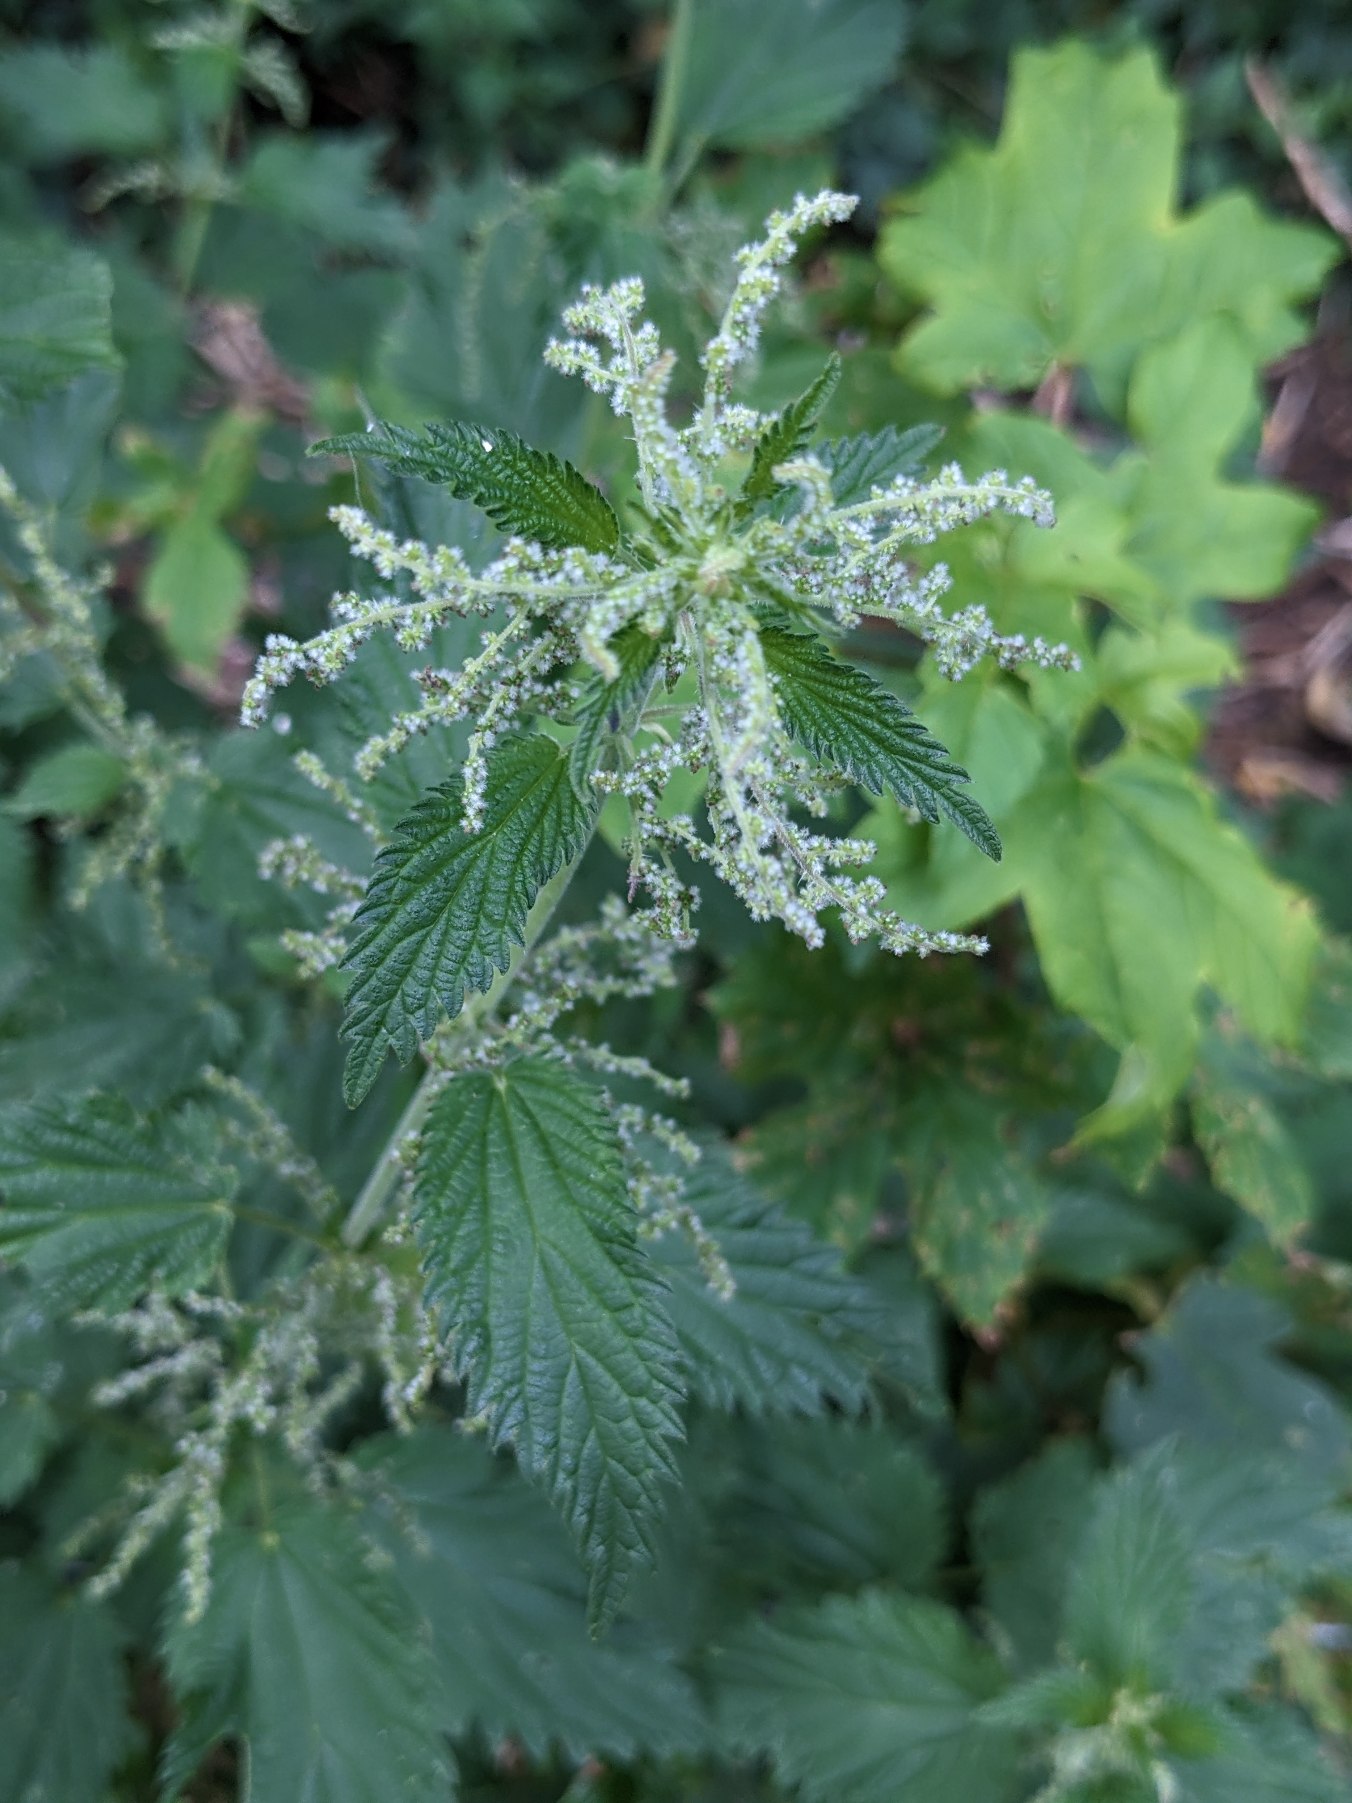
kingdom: Plantae
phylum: Tracheophyta
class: Magnoliopsida
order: Rosales
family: Urticaceae
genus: Urtica
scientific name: Urtica dioica
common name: Stor nælde
